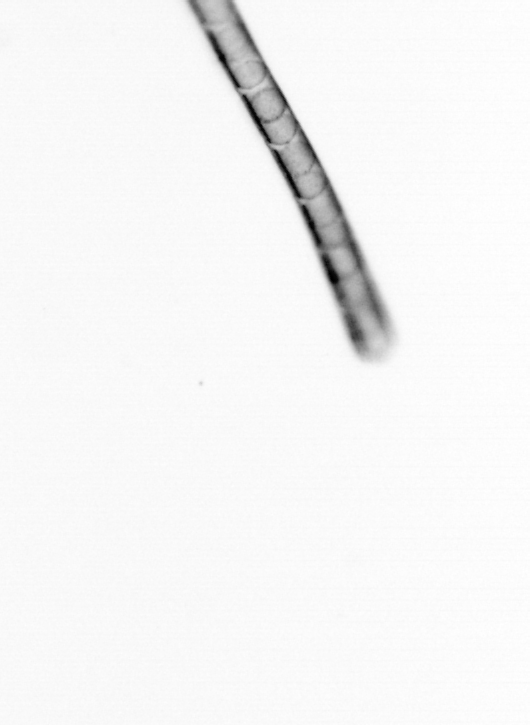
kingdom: Chromista
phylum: Ochrophyta
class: Bacillariophyceae
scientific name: Bacillariophyceae
